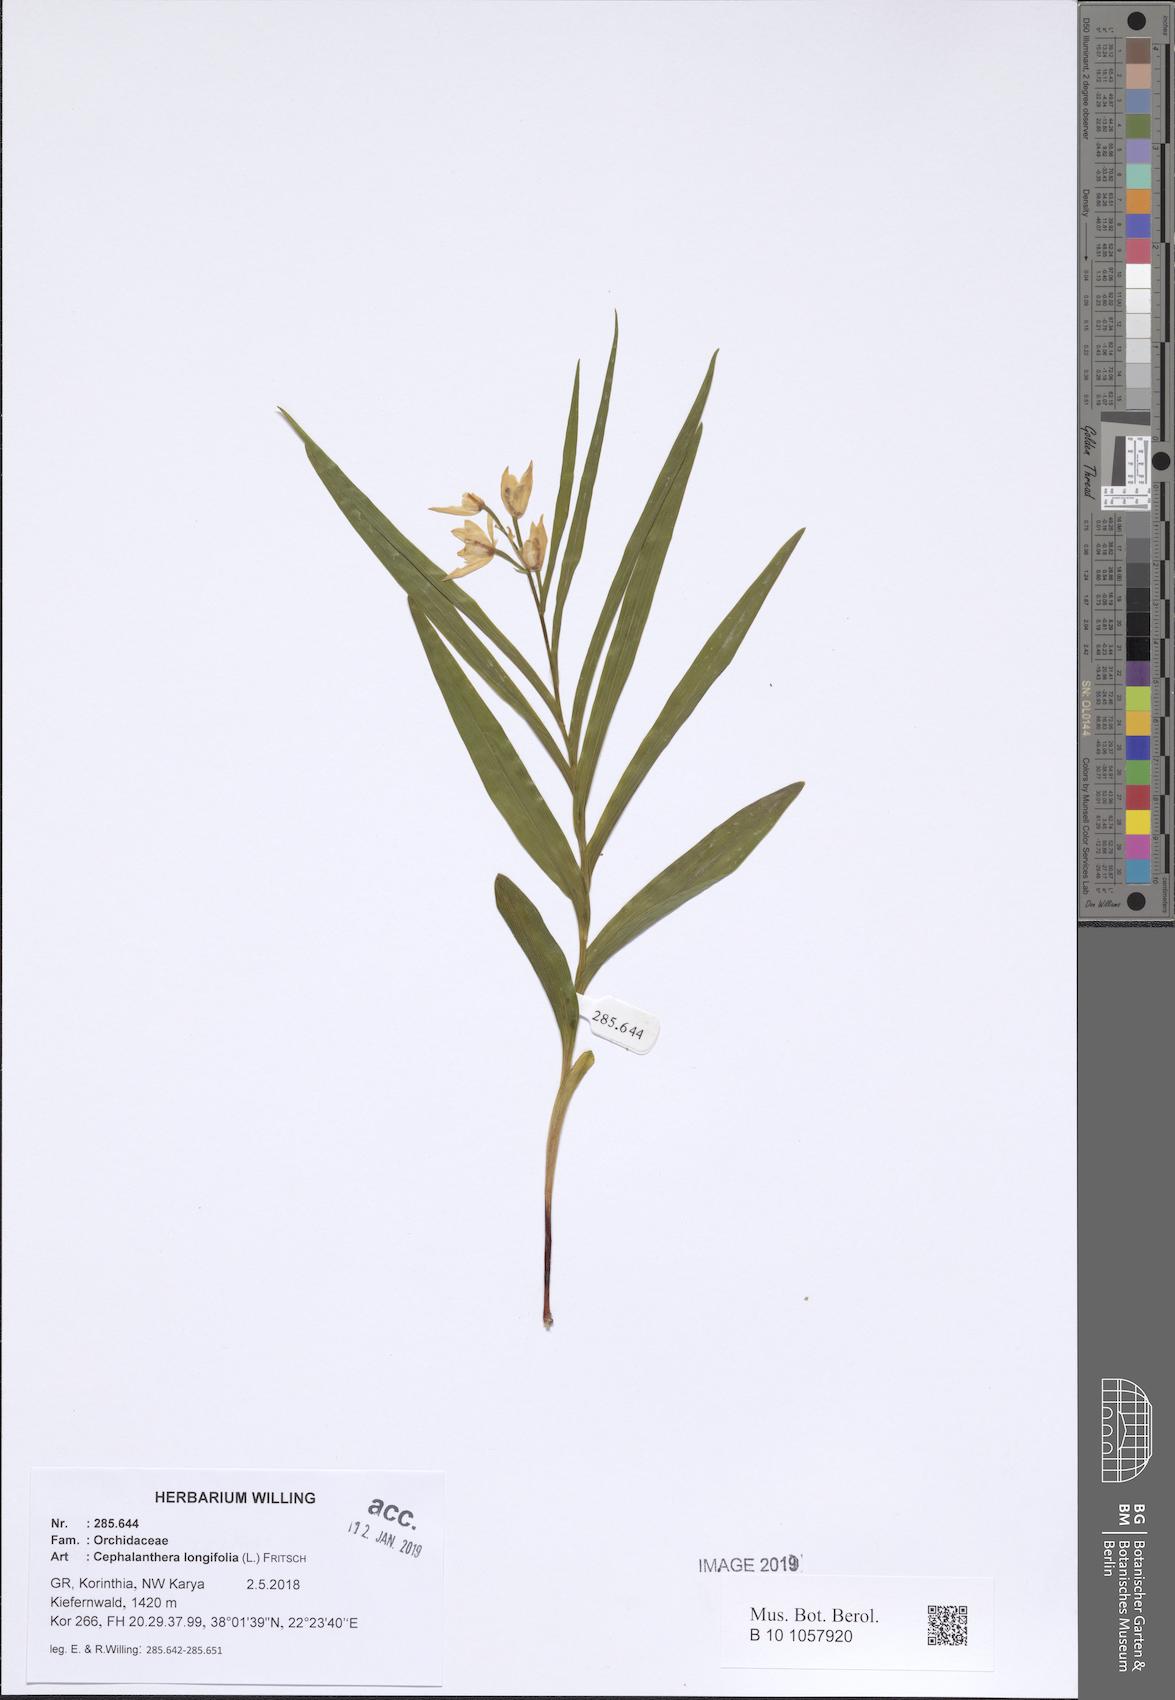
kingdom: Plantae
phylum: Tracheophyta
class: Liliopsida
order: Asparagales
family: Orchidaceae
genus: Cephalanthera
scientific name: Cephalanthera longifolia
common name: Narrow-leaved helleborine
